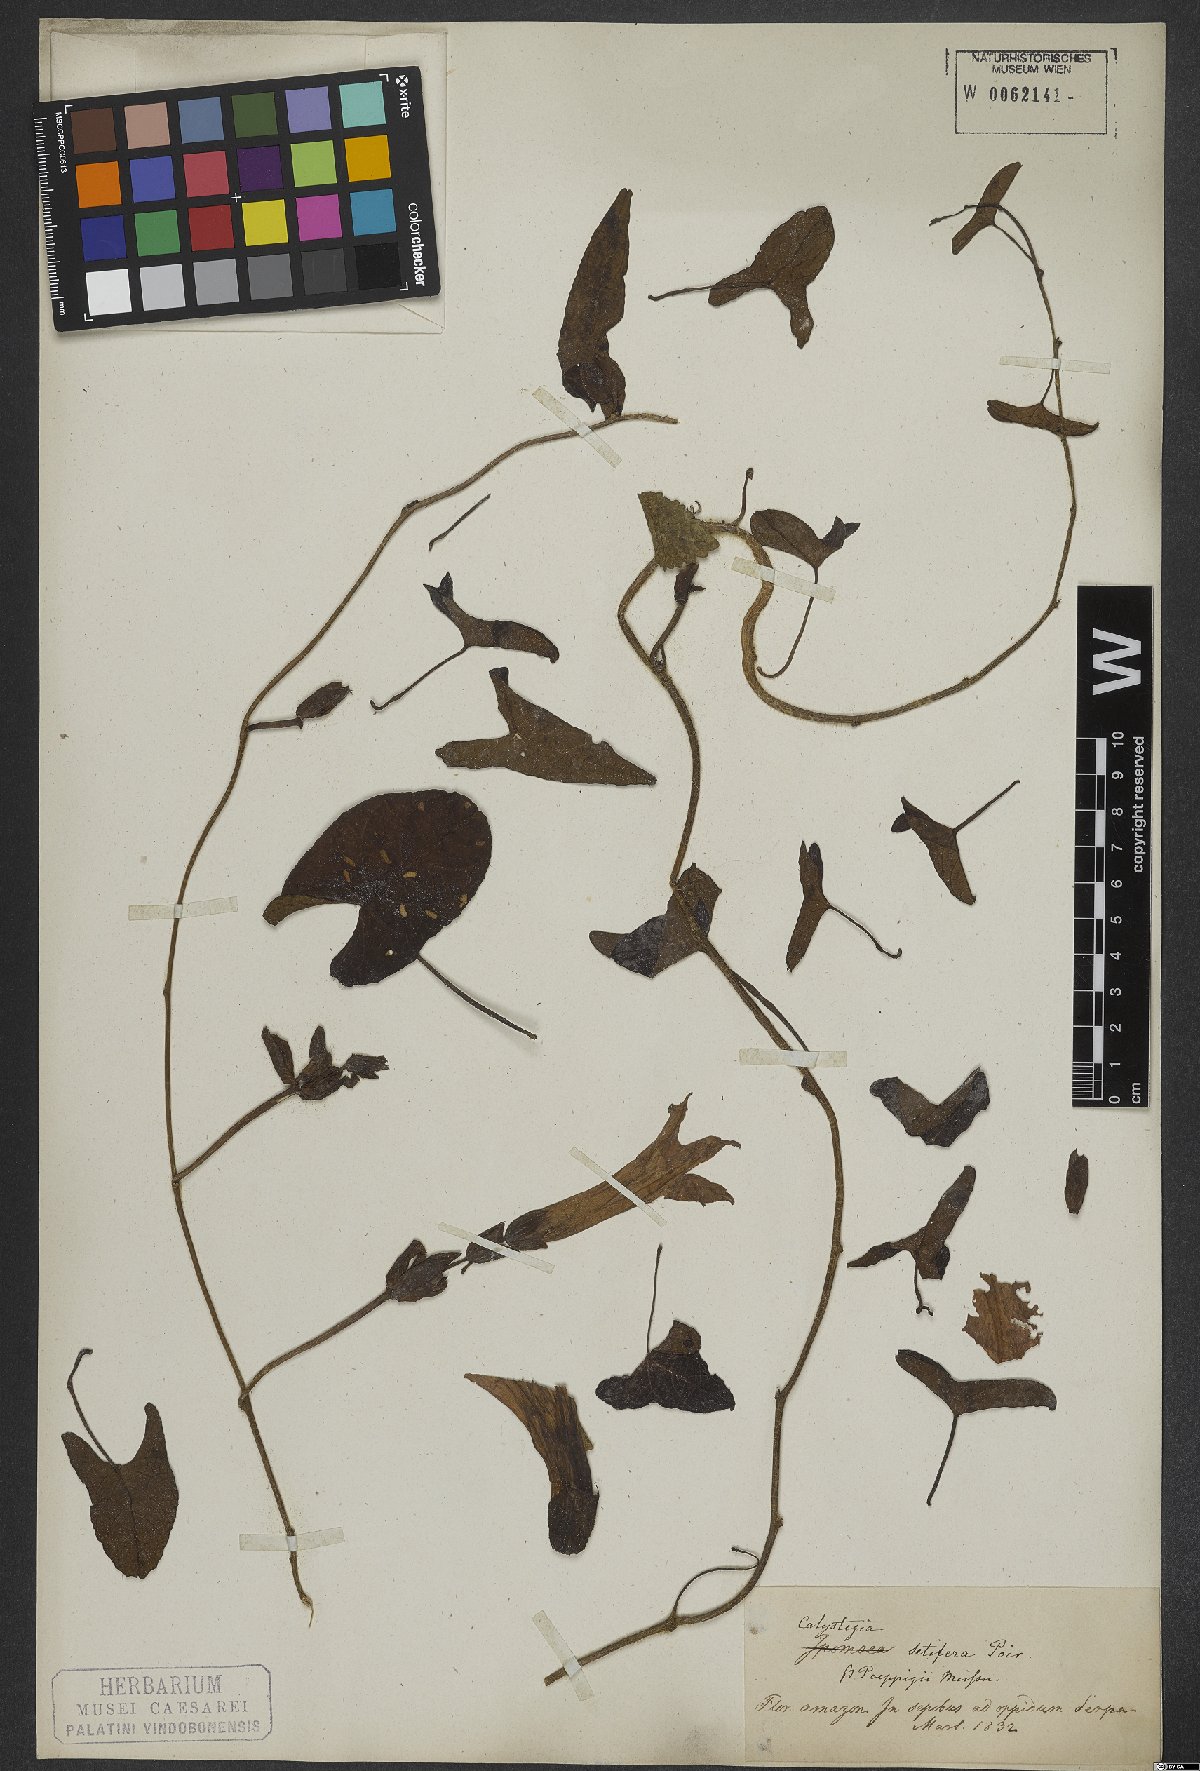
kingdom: Plantae
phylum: Tracheophyta
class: Magnoliopsida
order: Solanales
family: Convolvulaceae
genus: Ipomoea
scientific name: Ipomoea setifera
